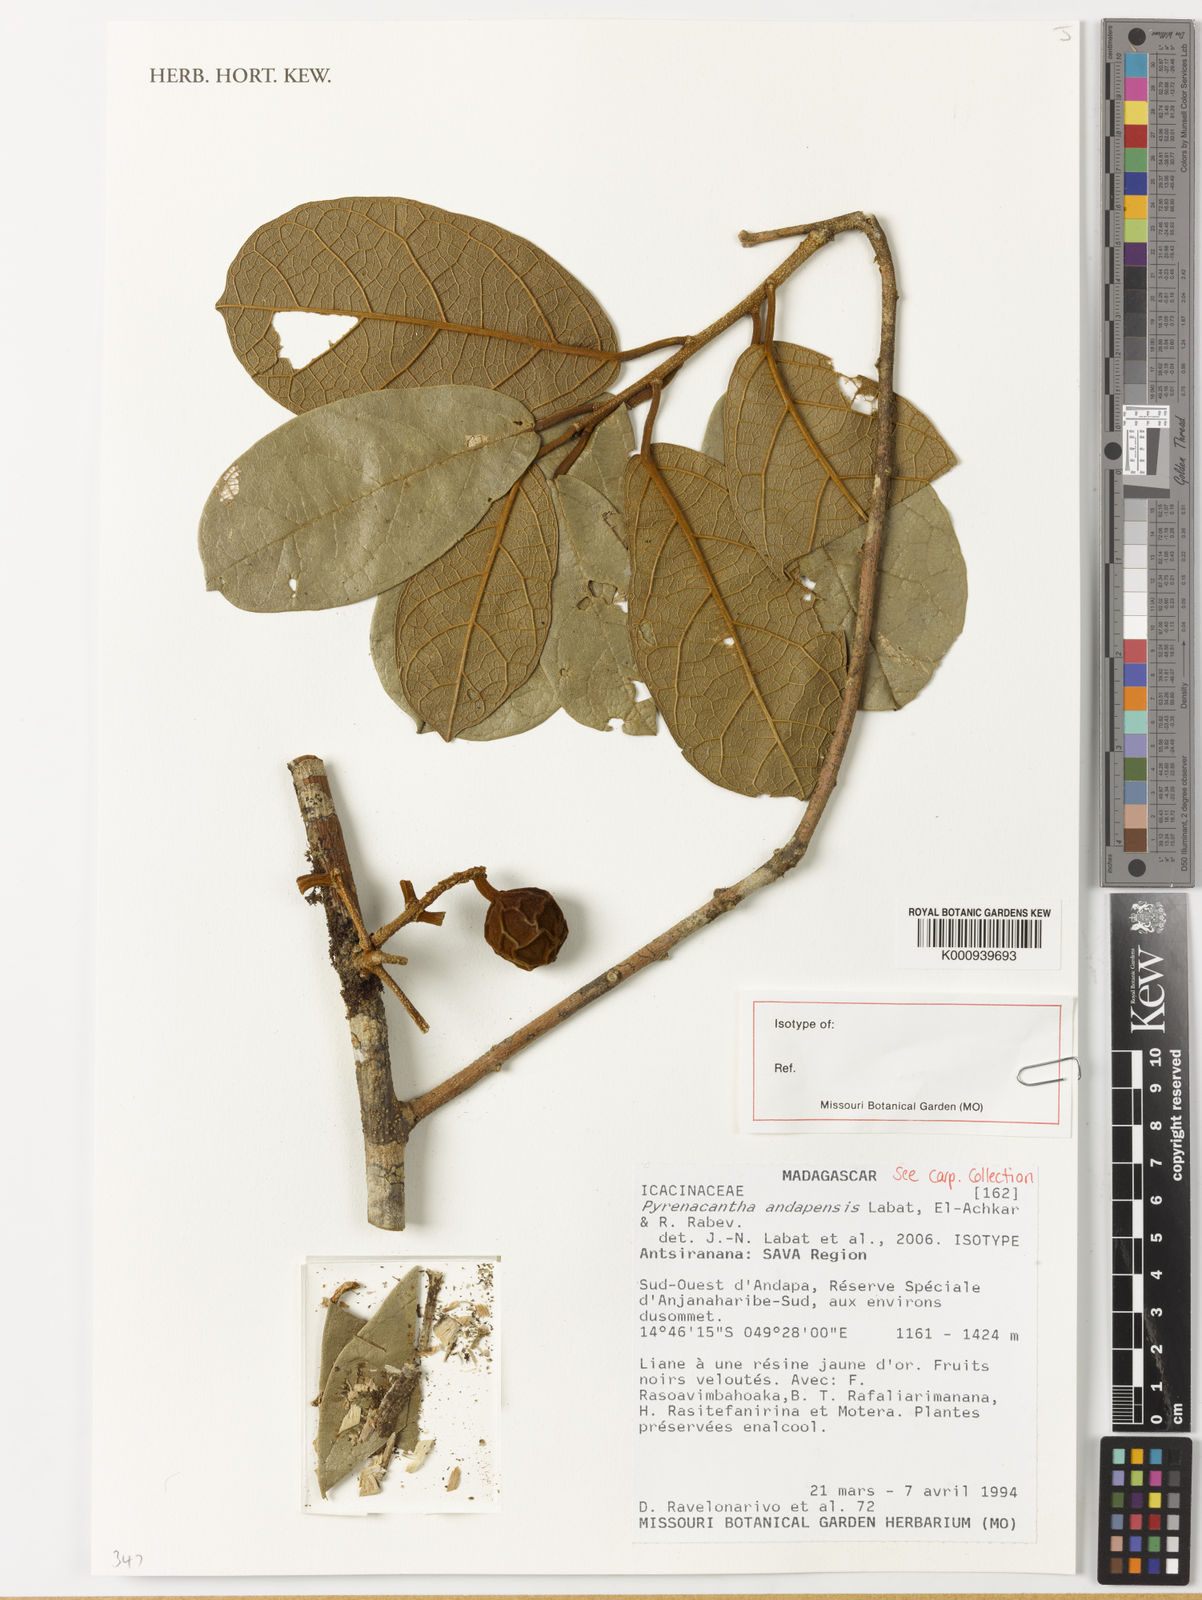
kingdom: Plantae
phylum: Tracheophyta
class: Magnoliopsida
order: Icacinales
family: Icacinaceae
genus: Pyrenacantha
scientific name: Pyrenacantha andapensis
